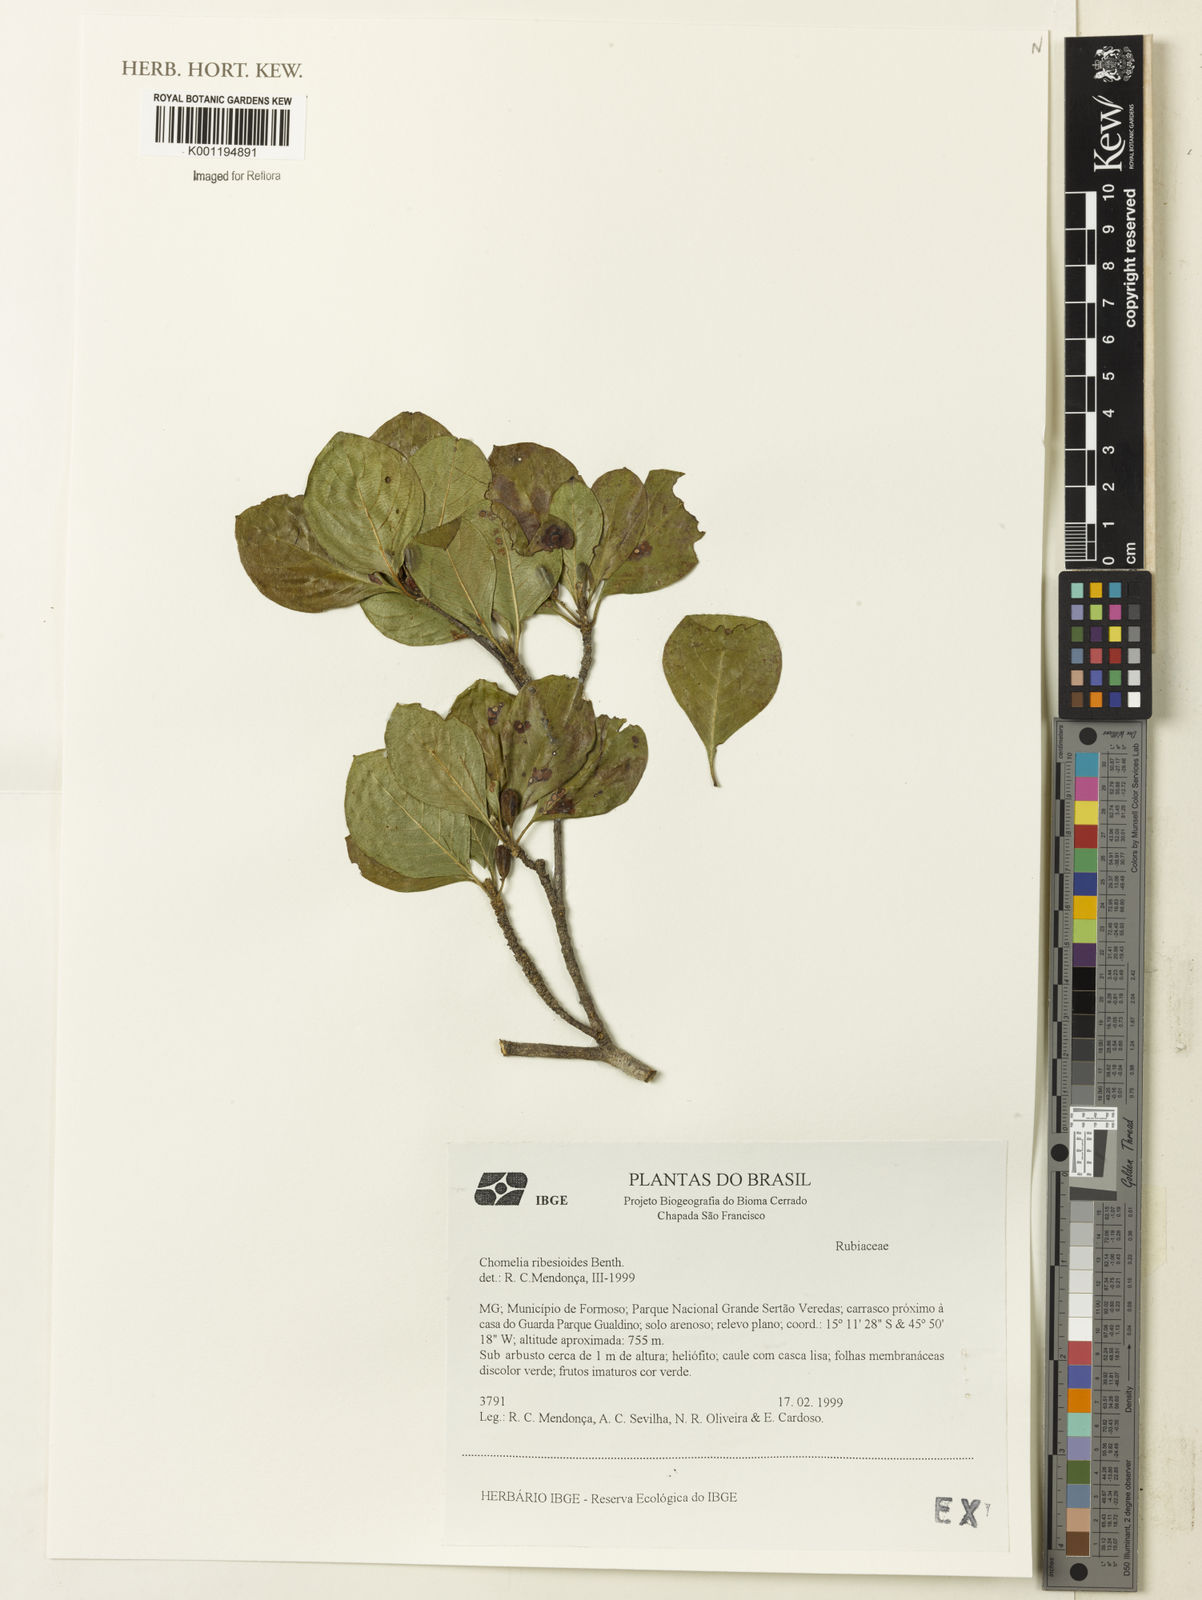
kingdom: Plantae
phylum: Tracheophyta
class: Magnoliopsida
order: Gentianales
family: Rubiaceae
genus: Chomelia
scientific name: Chomelia ribesioides
